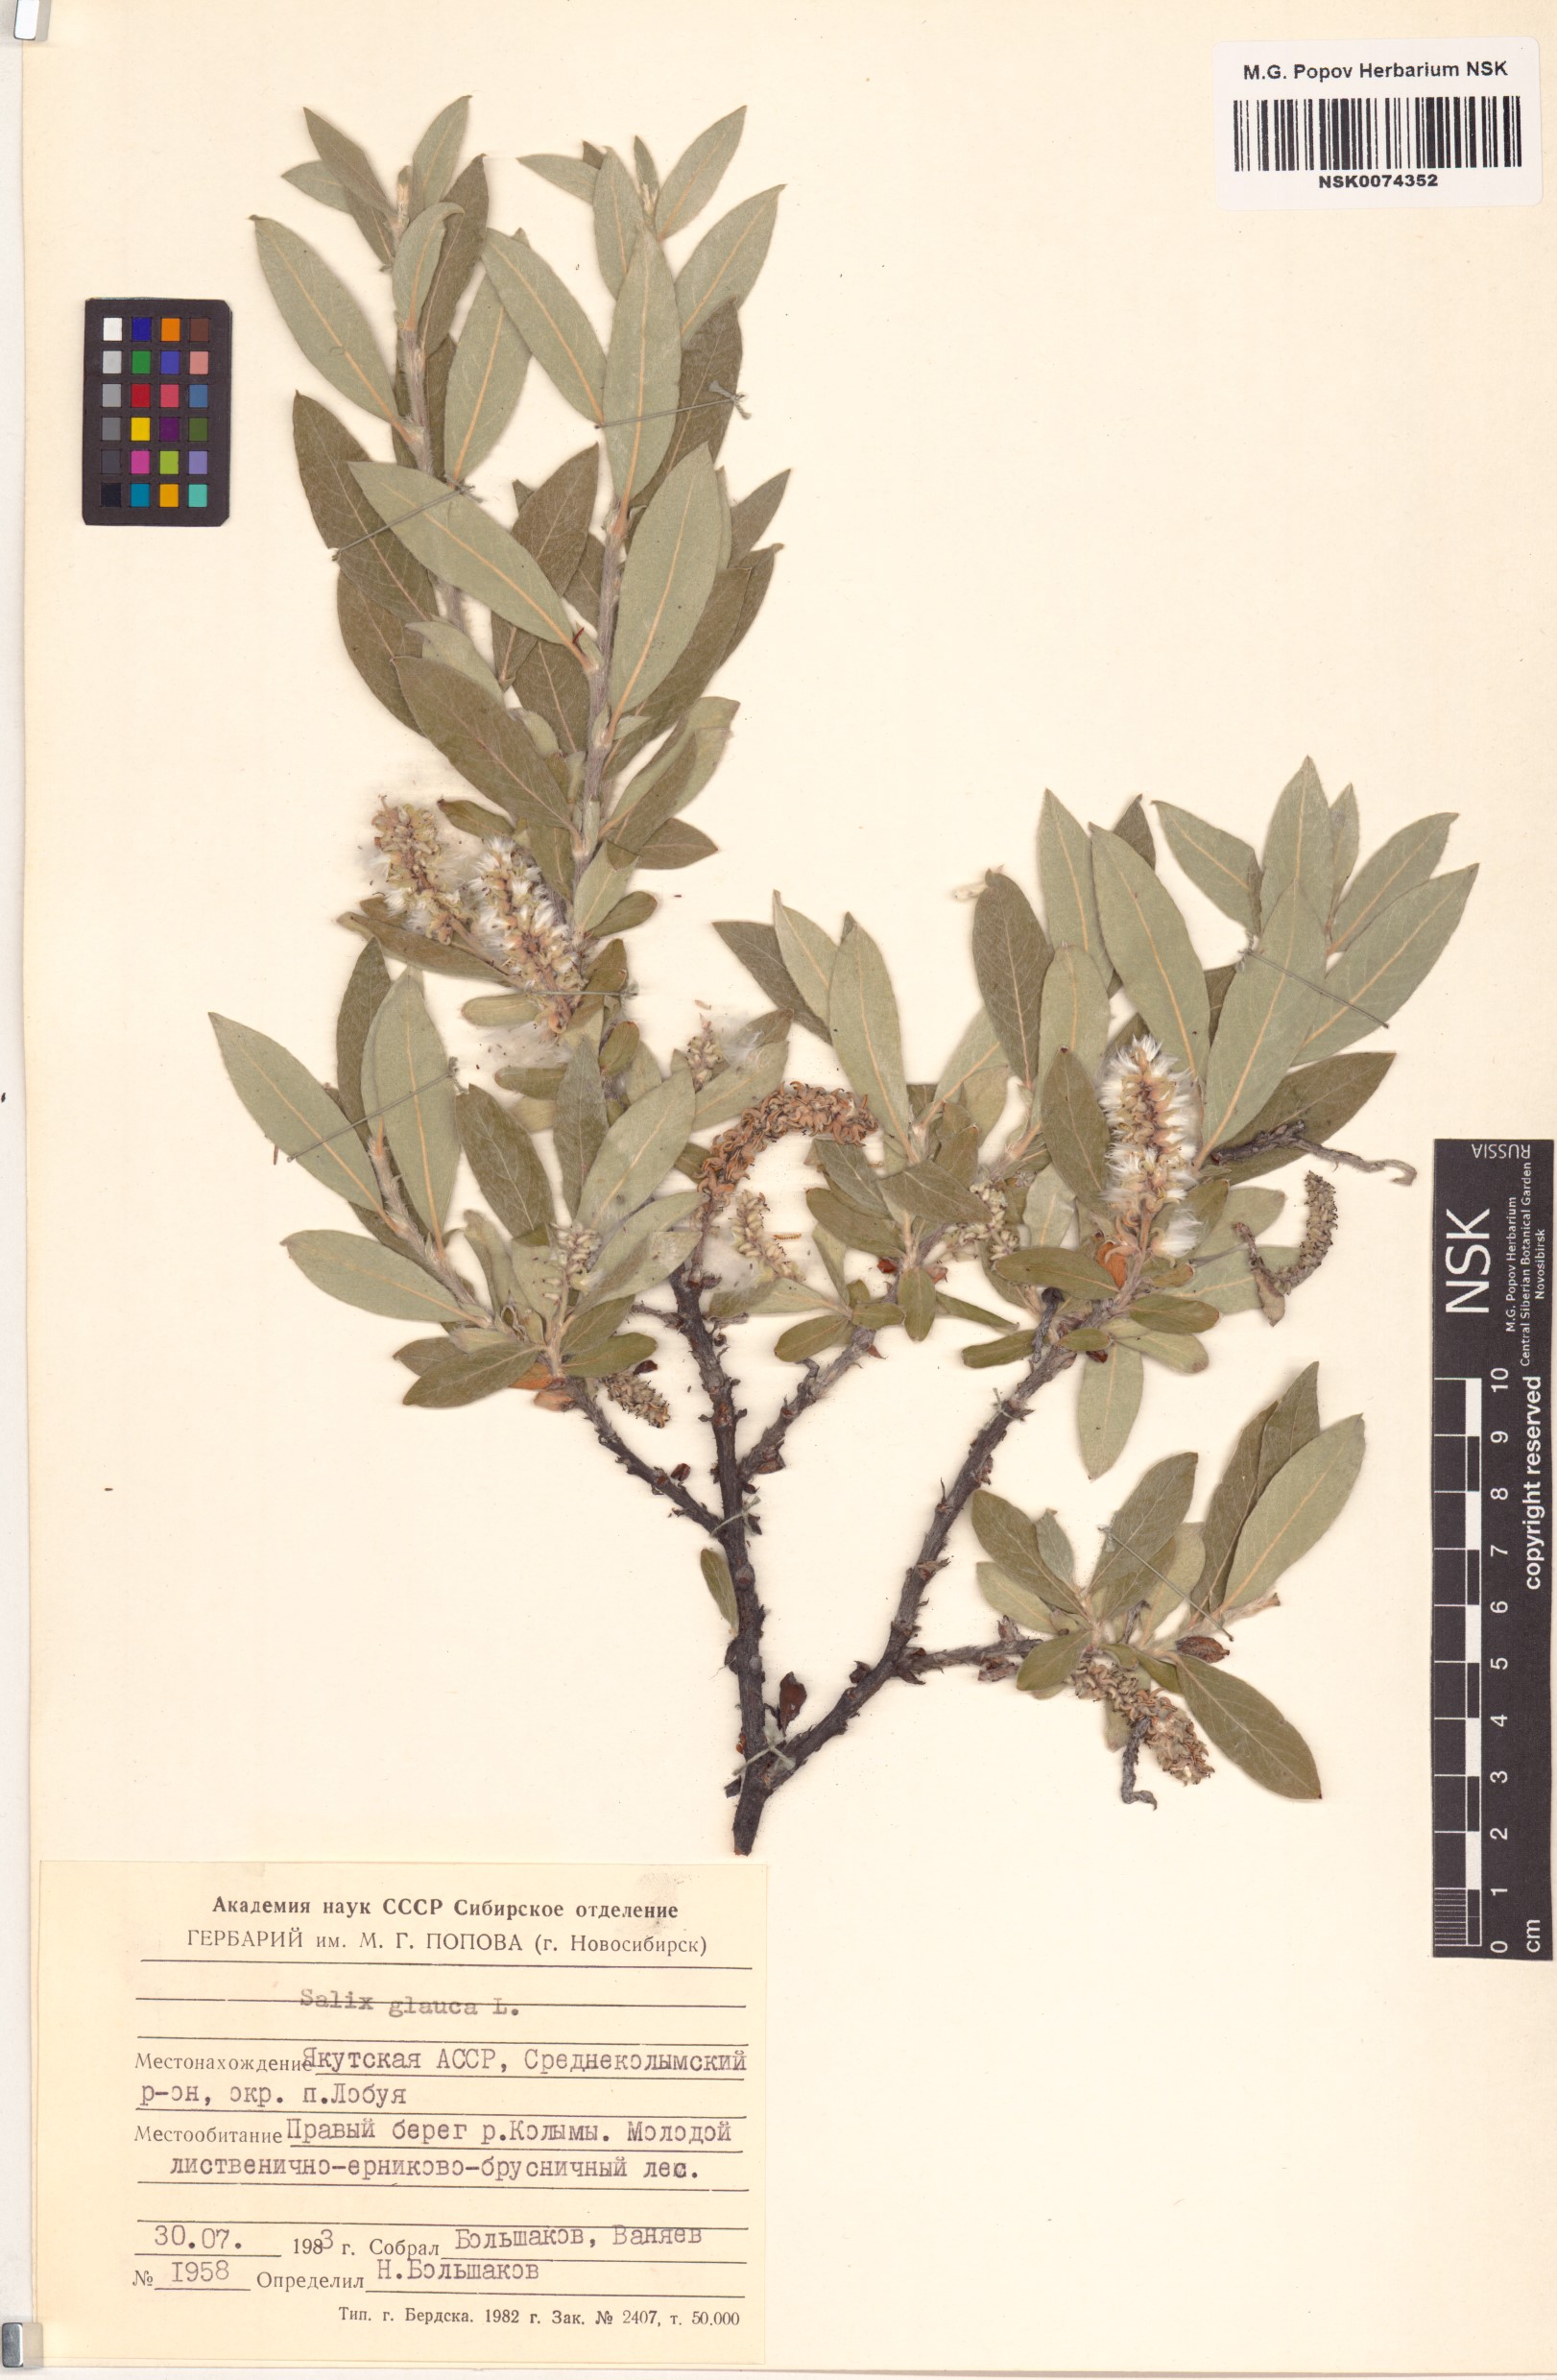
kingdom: Plantae
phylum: Tracheophyta
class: Magnoliopsida
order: Malpighiales
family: Salicaceae
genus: Salix
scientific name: Salix glauca
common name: Glaucous willow
